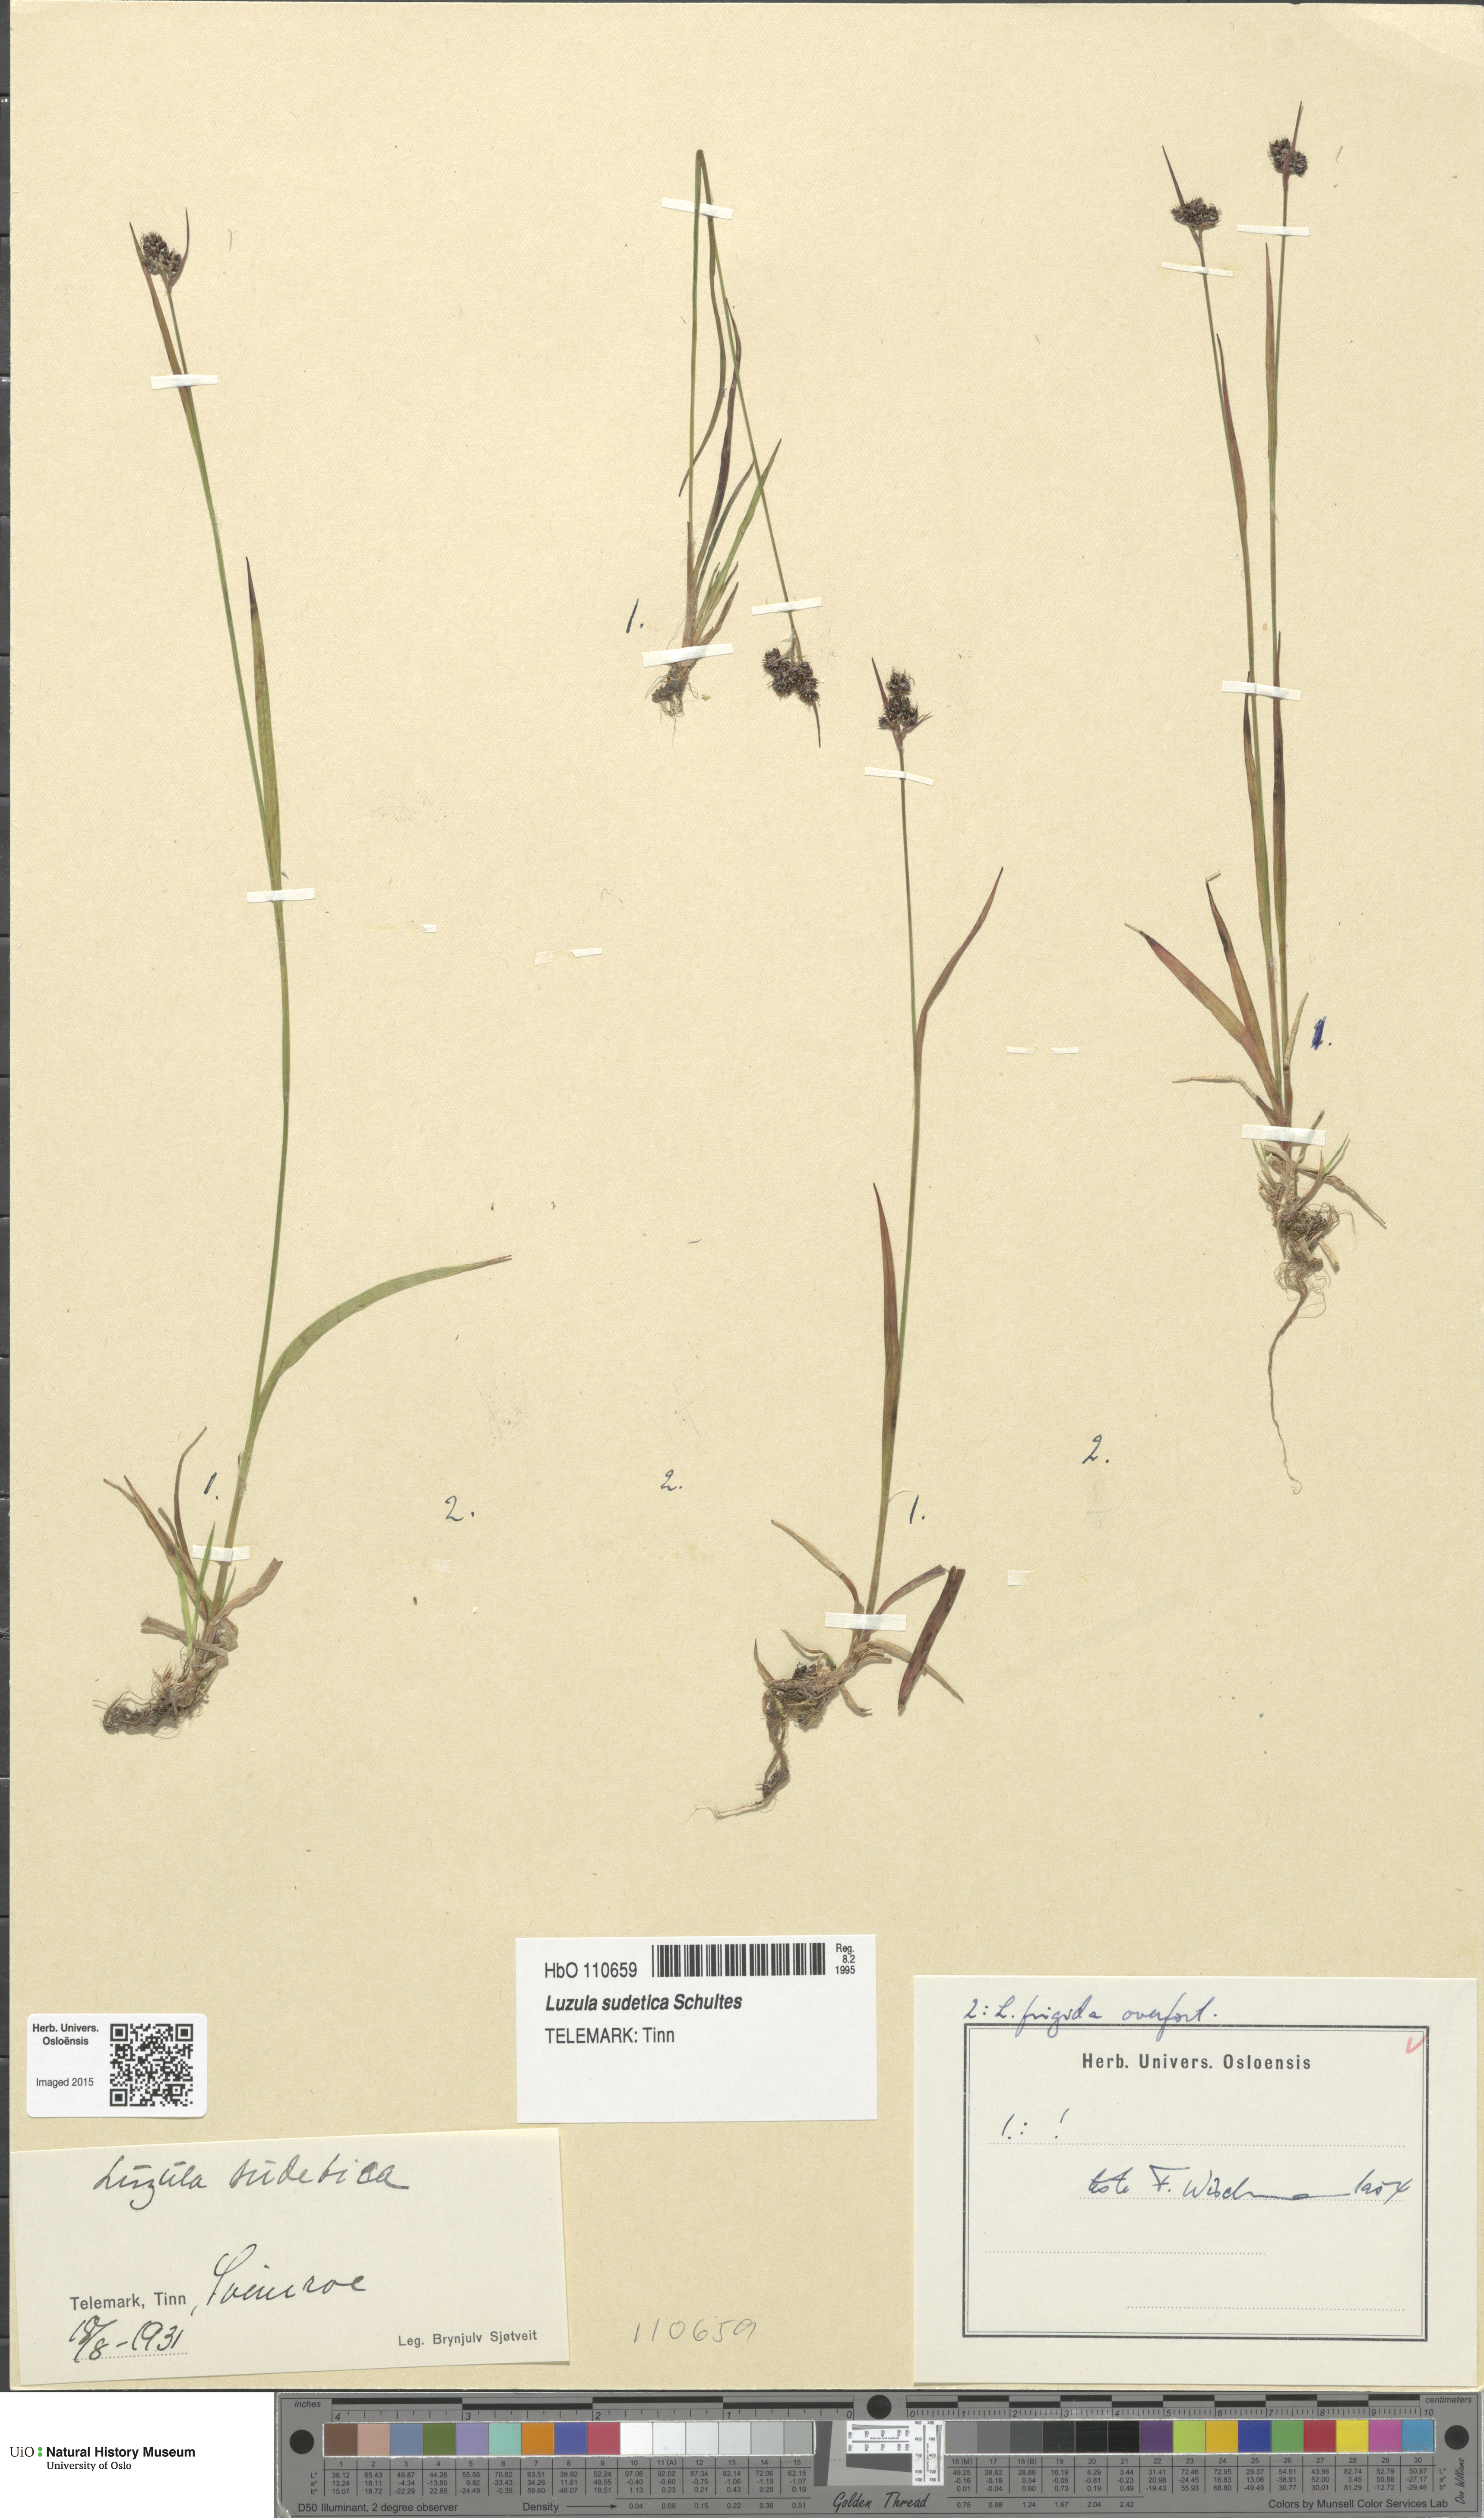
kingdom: Plantae
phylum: Tracheophyta
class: Liliopsida
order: Poales
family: Juncaceae
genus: Luzula
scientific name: Luzula sudetica
